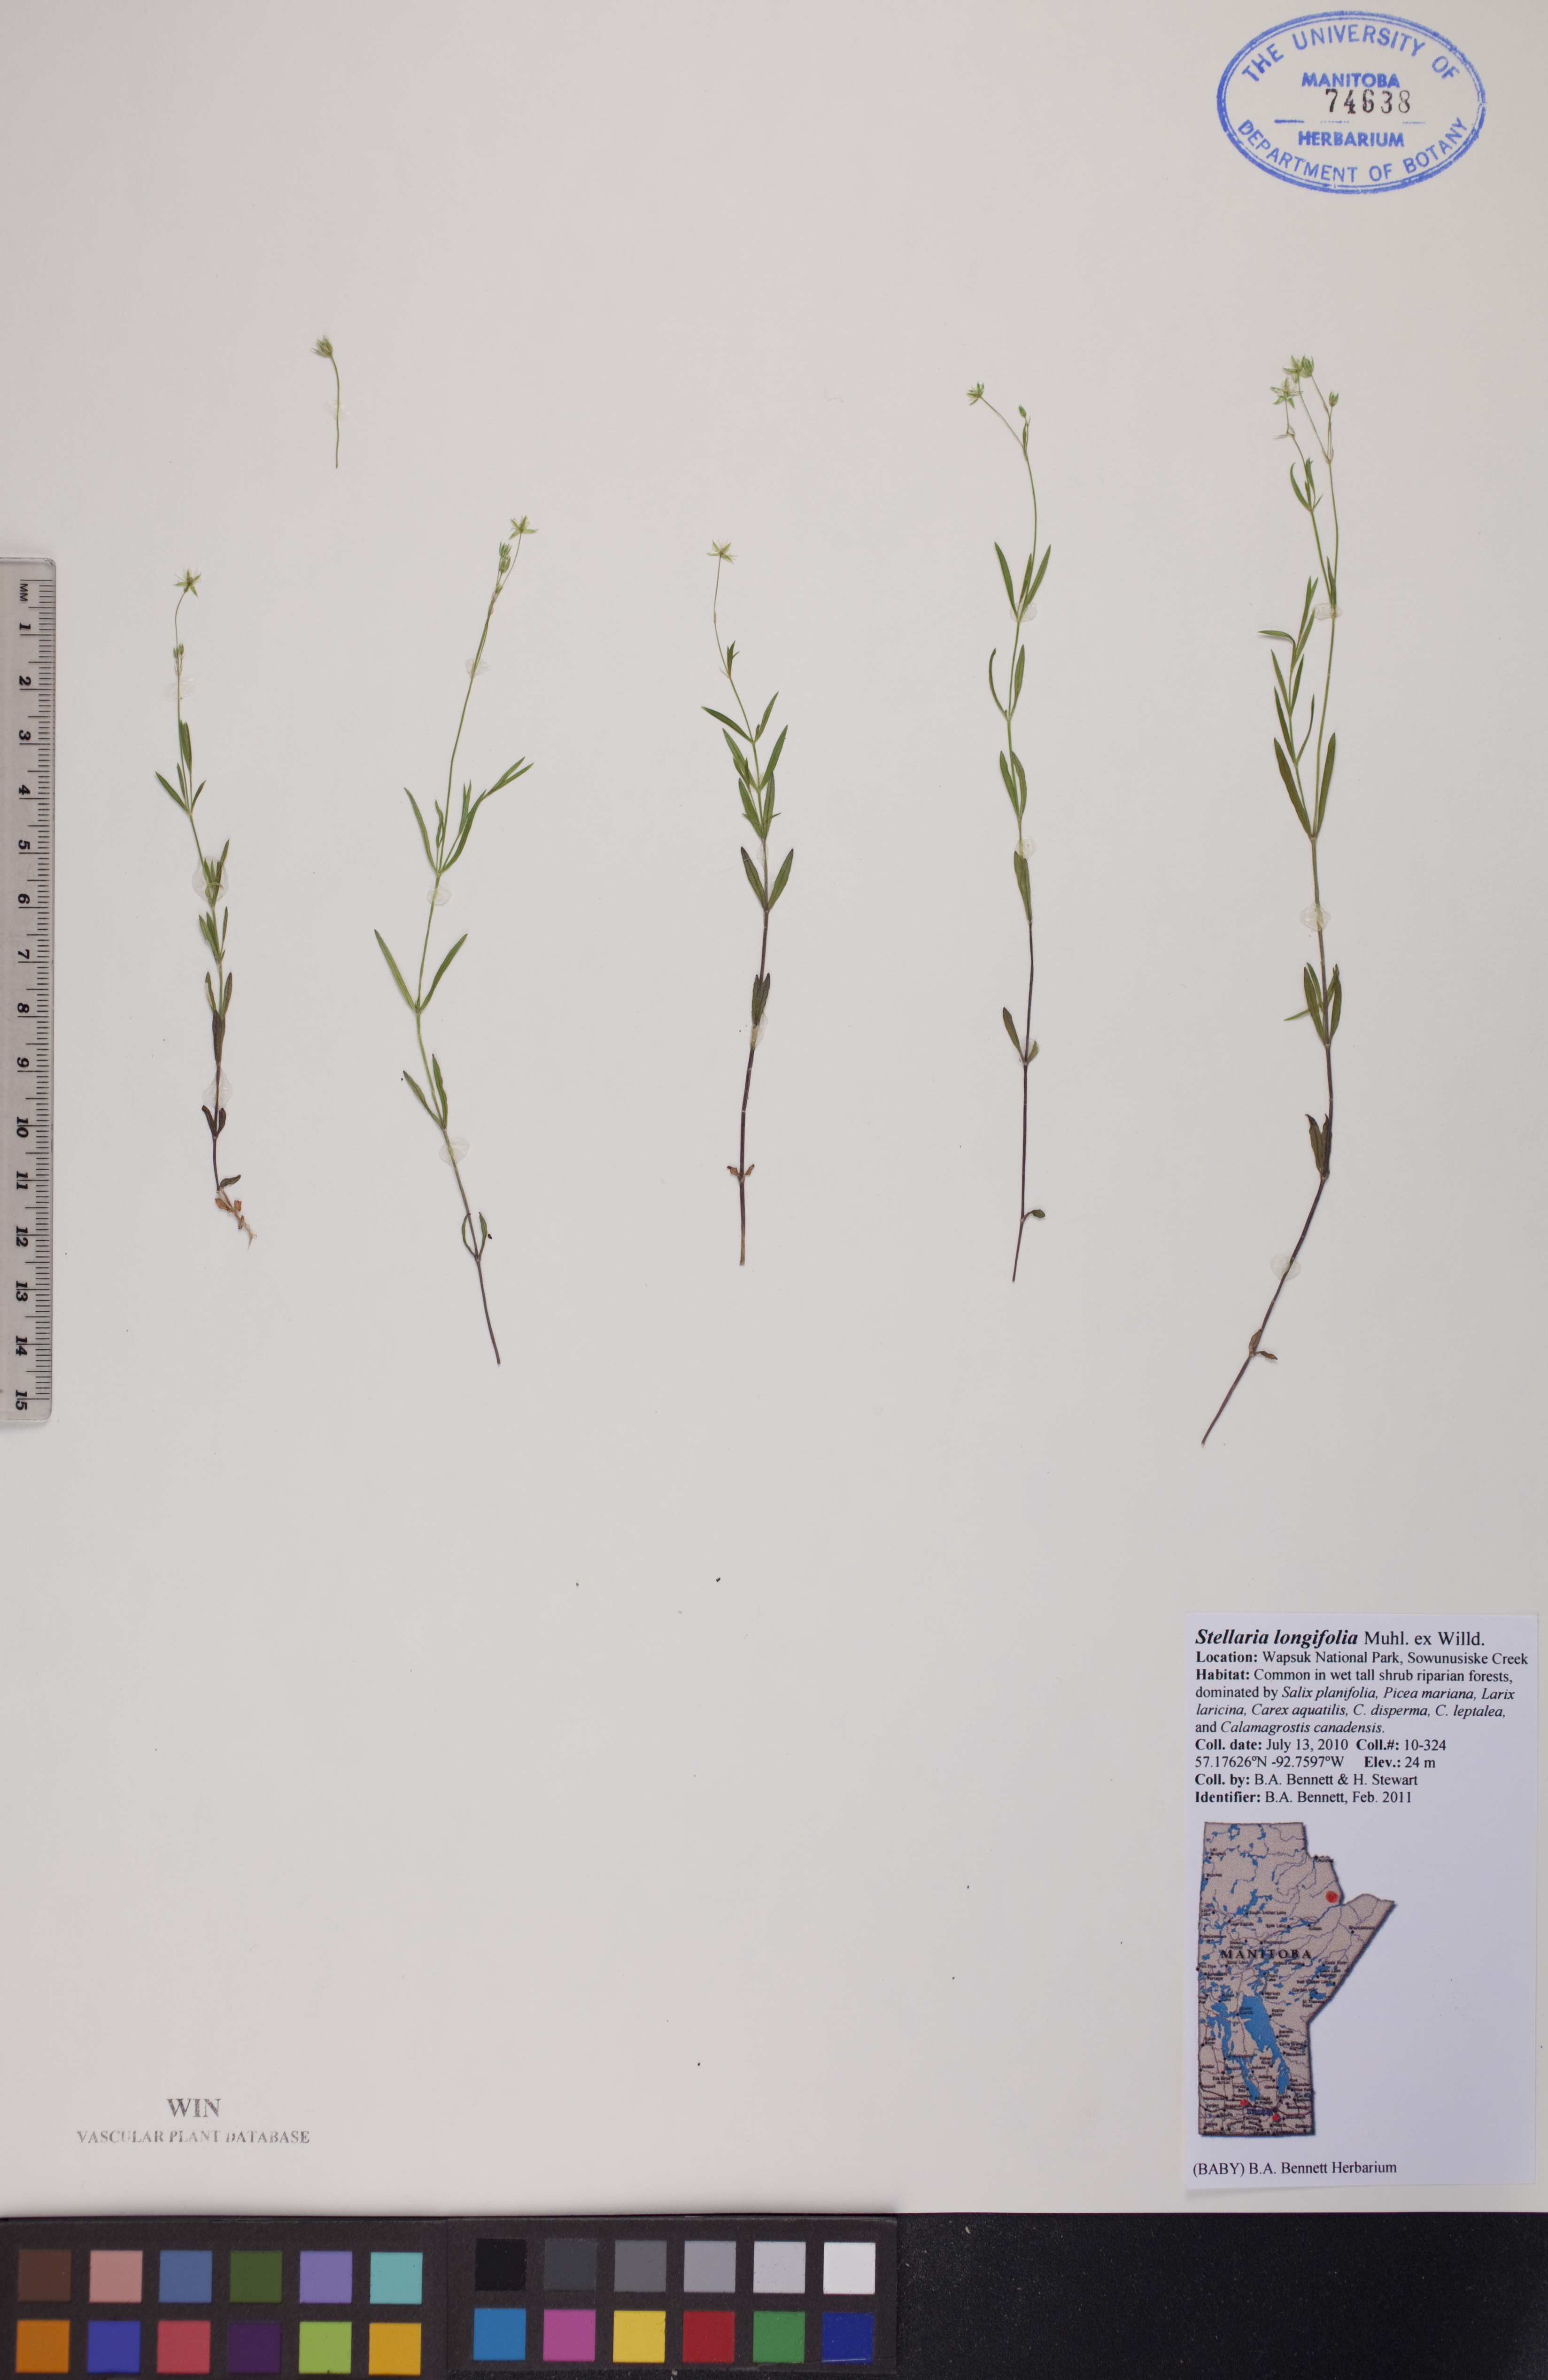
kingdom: Plantae
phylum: Tracheophyta
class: Magnoliopsida
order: Caryophyllales
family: Caryophyllaceae
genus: Stellaria
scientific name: Stellaria longifolia
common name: Long-leaved chickweed
